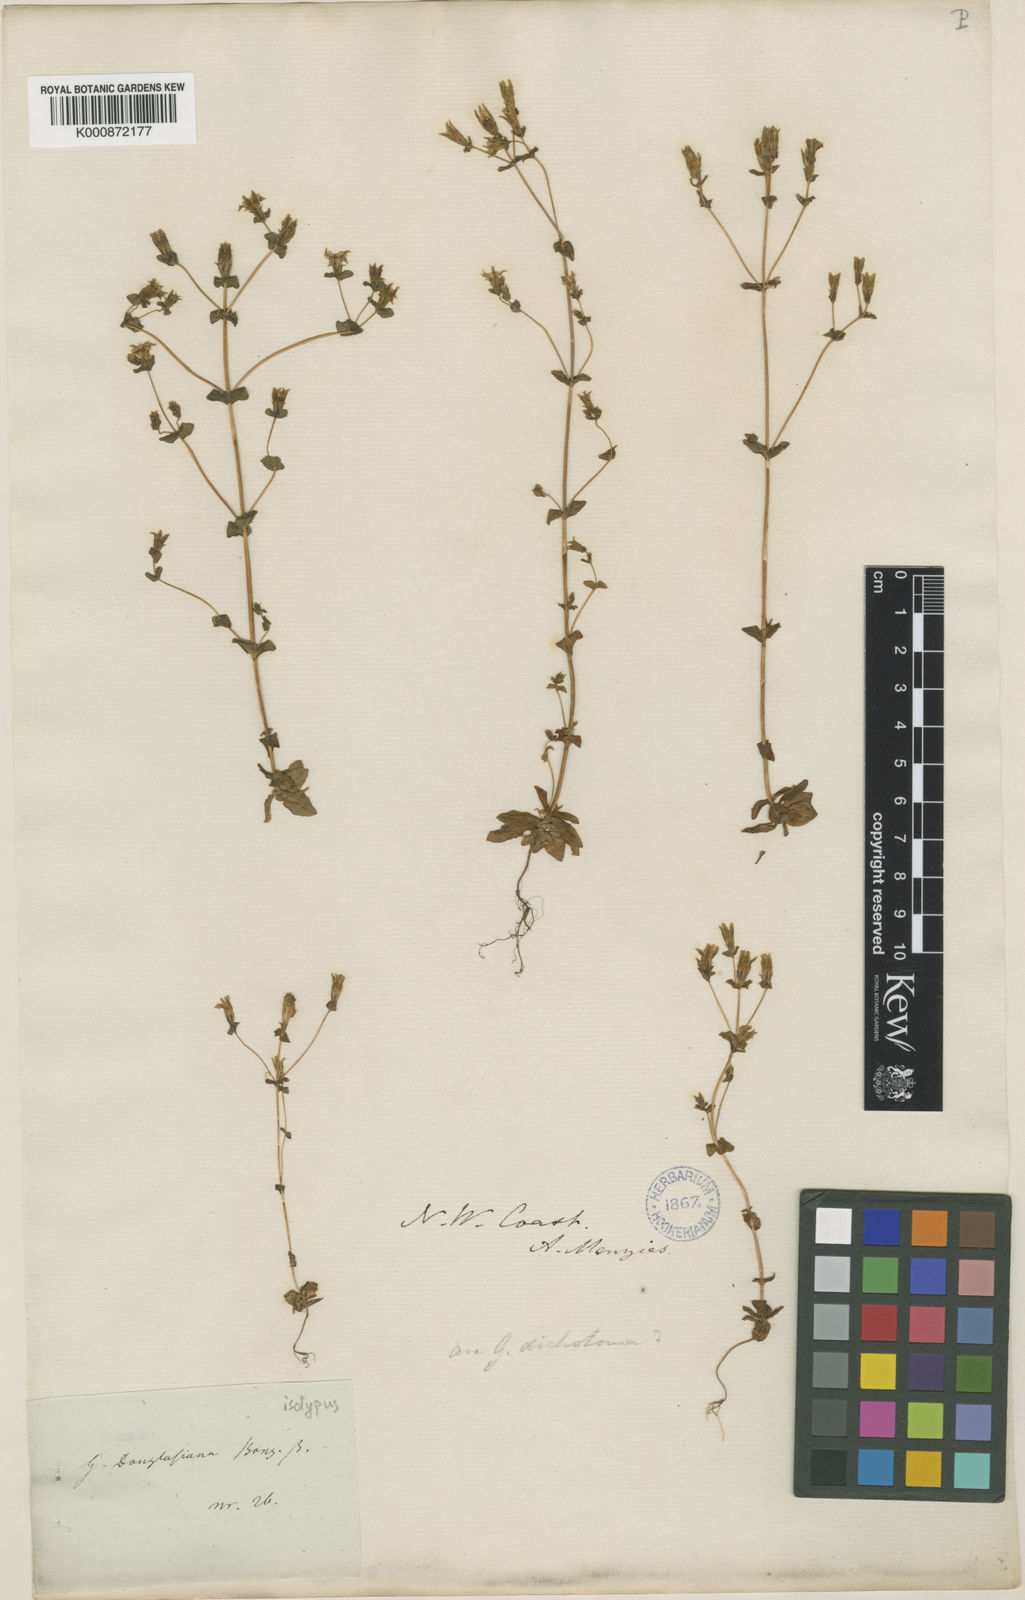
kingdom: Plantae
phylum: Tracheophyta
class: Magnoliopsida
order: Gentianales
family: Gentianaceae
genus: Gentiana
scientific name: Gentiana douglasiana
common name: Swamp gentian
